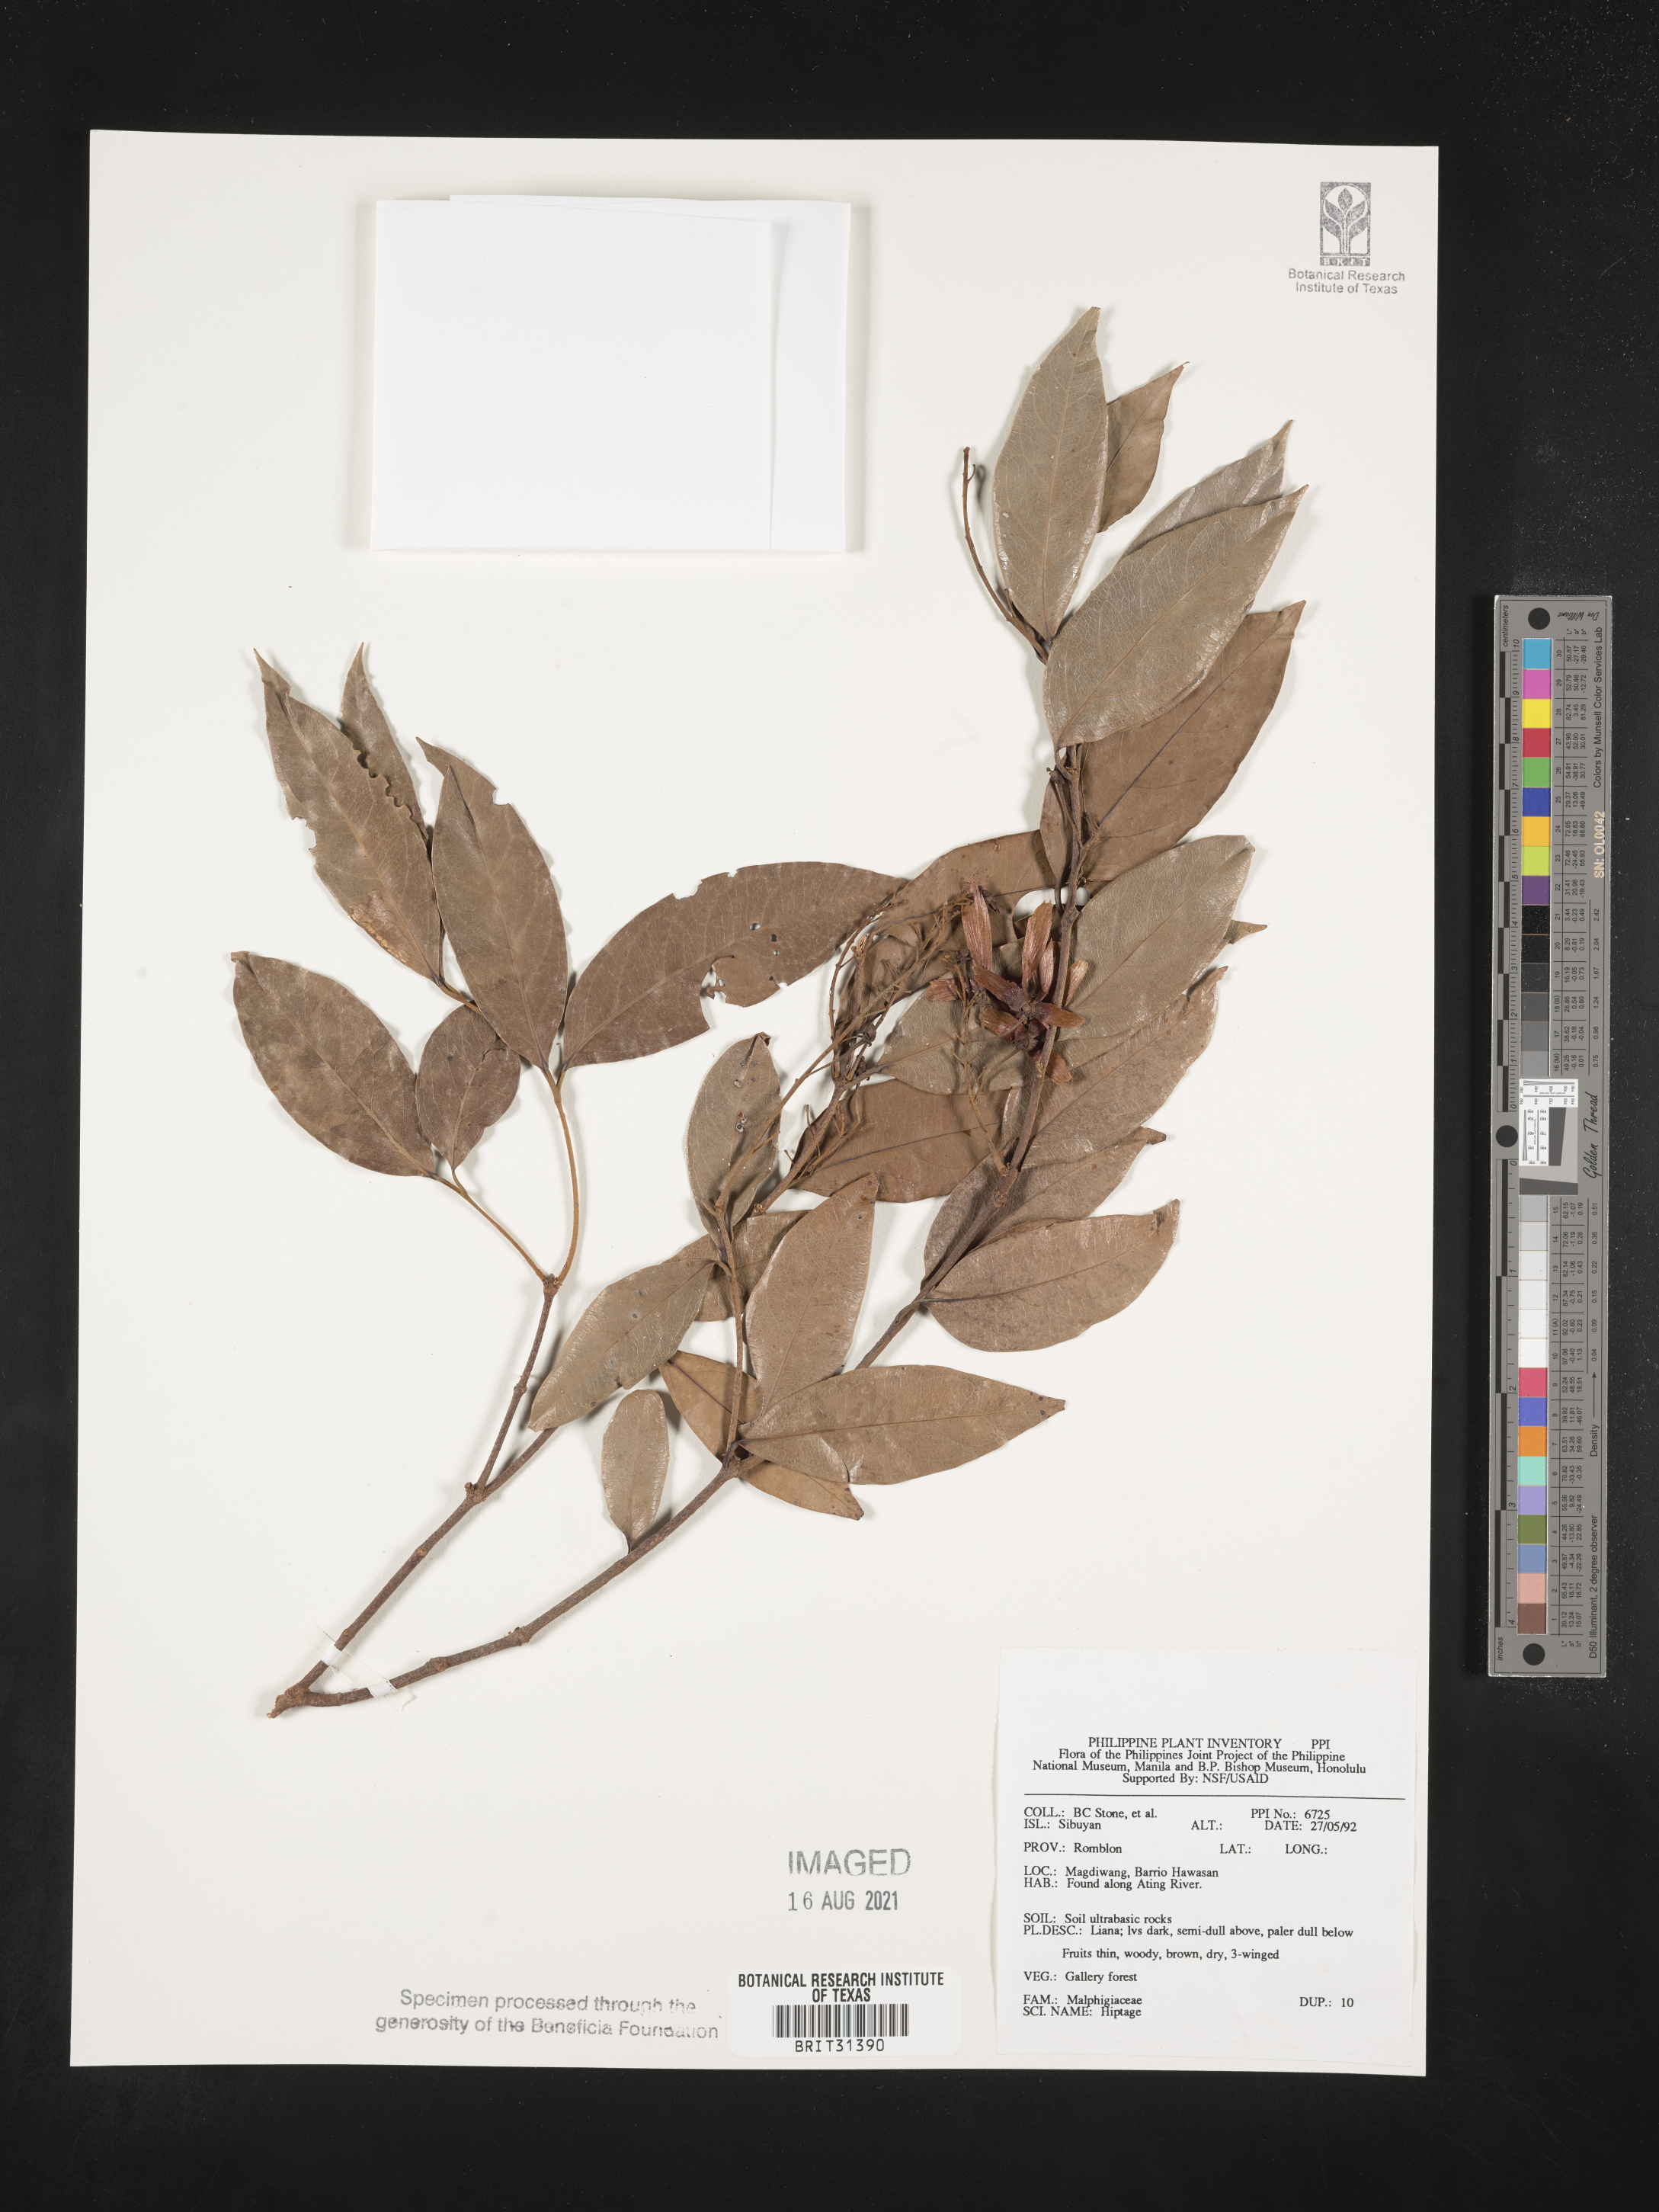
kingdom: Plantae
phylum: Tracheophyta
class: Magnoliopsida
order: Malpighiales
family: Malpighiaceae
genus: Hiptage
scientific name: Hiptage
